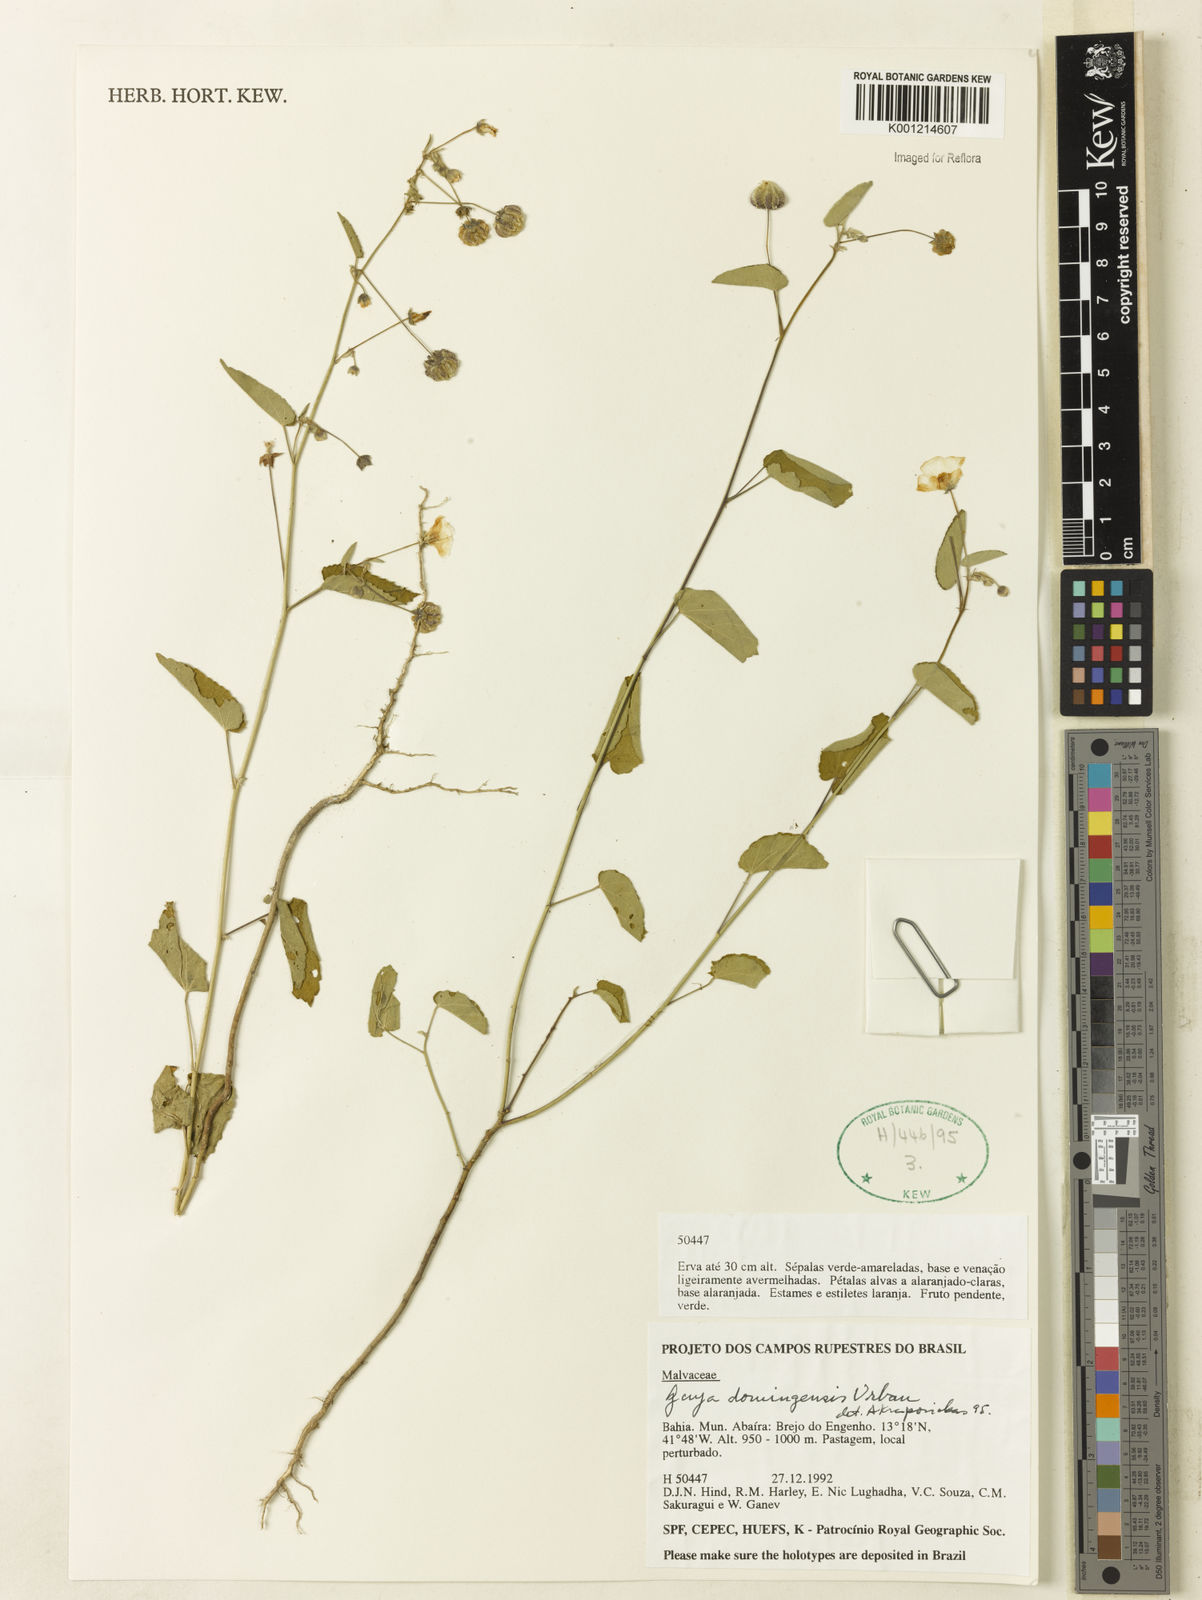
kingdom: Plantae
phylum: Tracheophyta
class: Magnoliopsida
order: Malvales
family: Malvaceae
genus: Gaya
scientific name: Gaya domingensis
